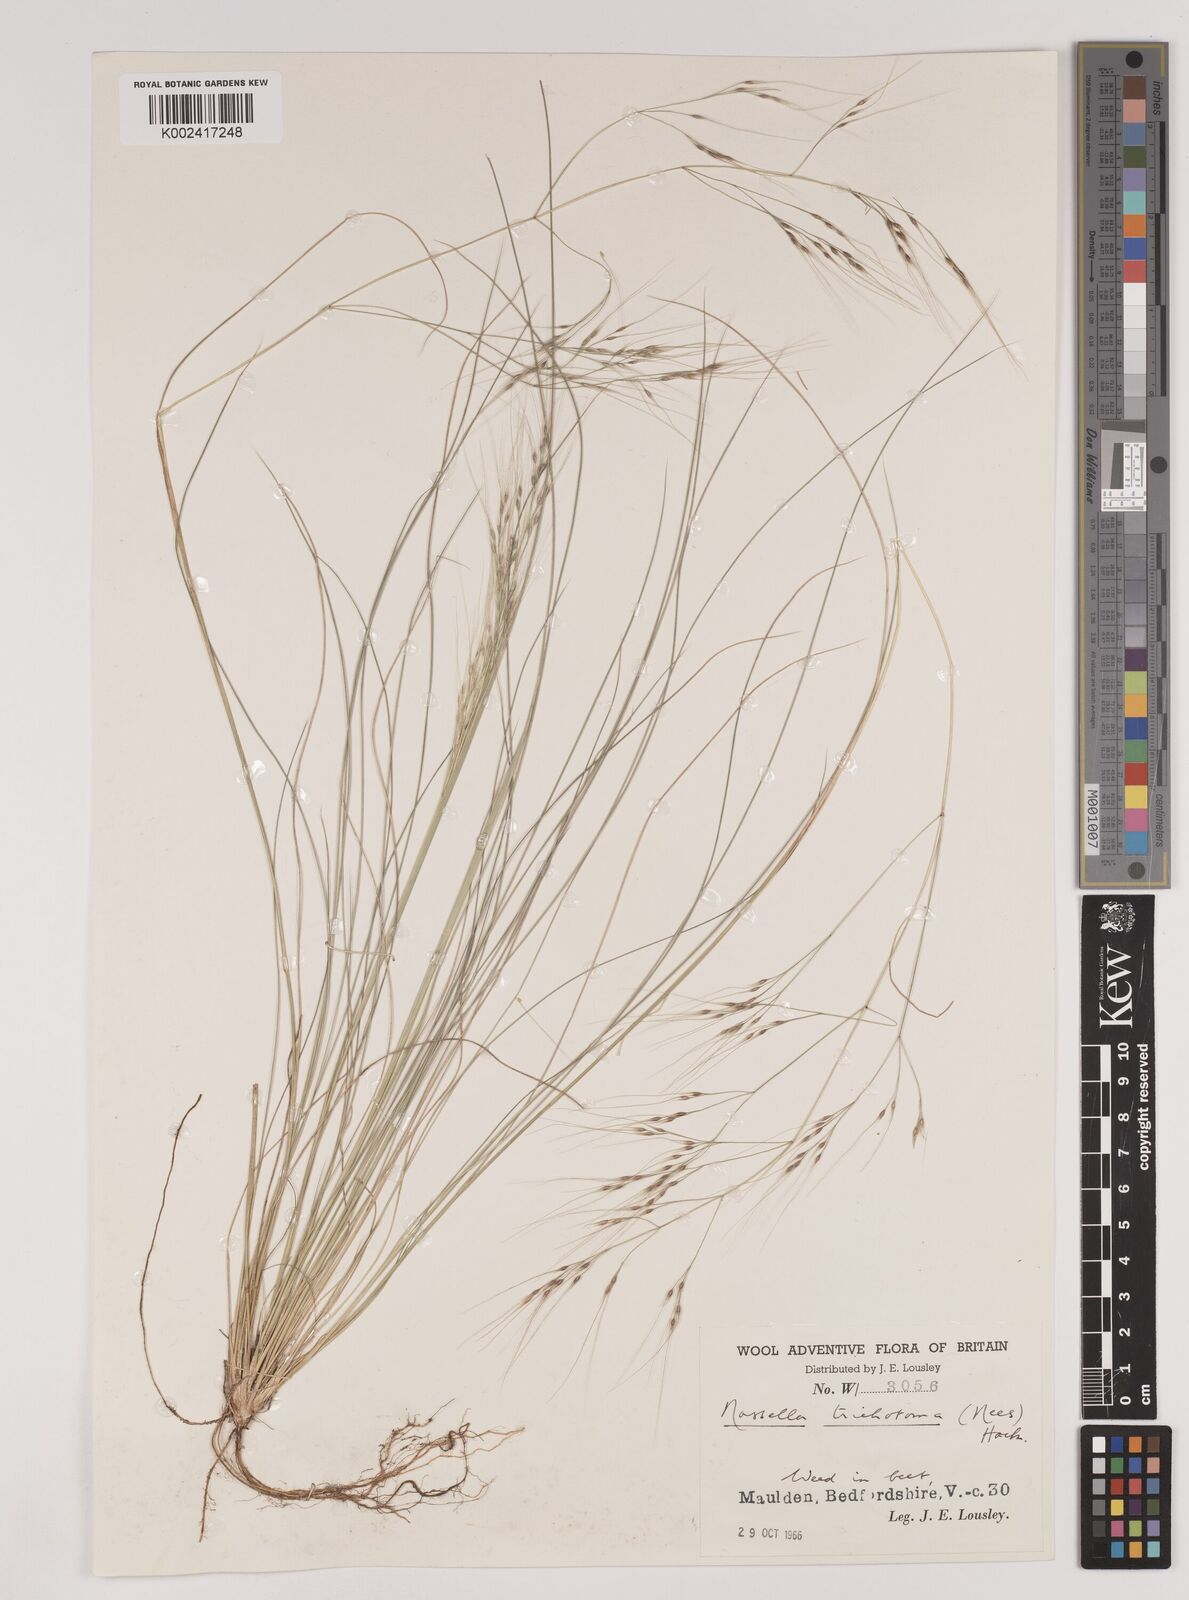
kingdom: Plantae
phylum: Tracheophyta
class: Liliopsida
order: Poales
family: Poaceae
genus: Nassella
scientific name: Nassella trichotoma
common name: Serrated tussock grass
